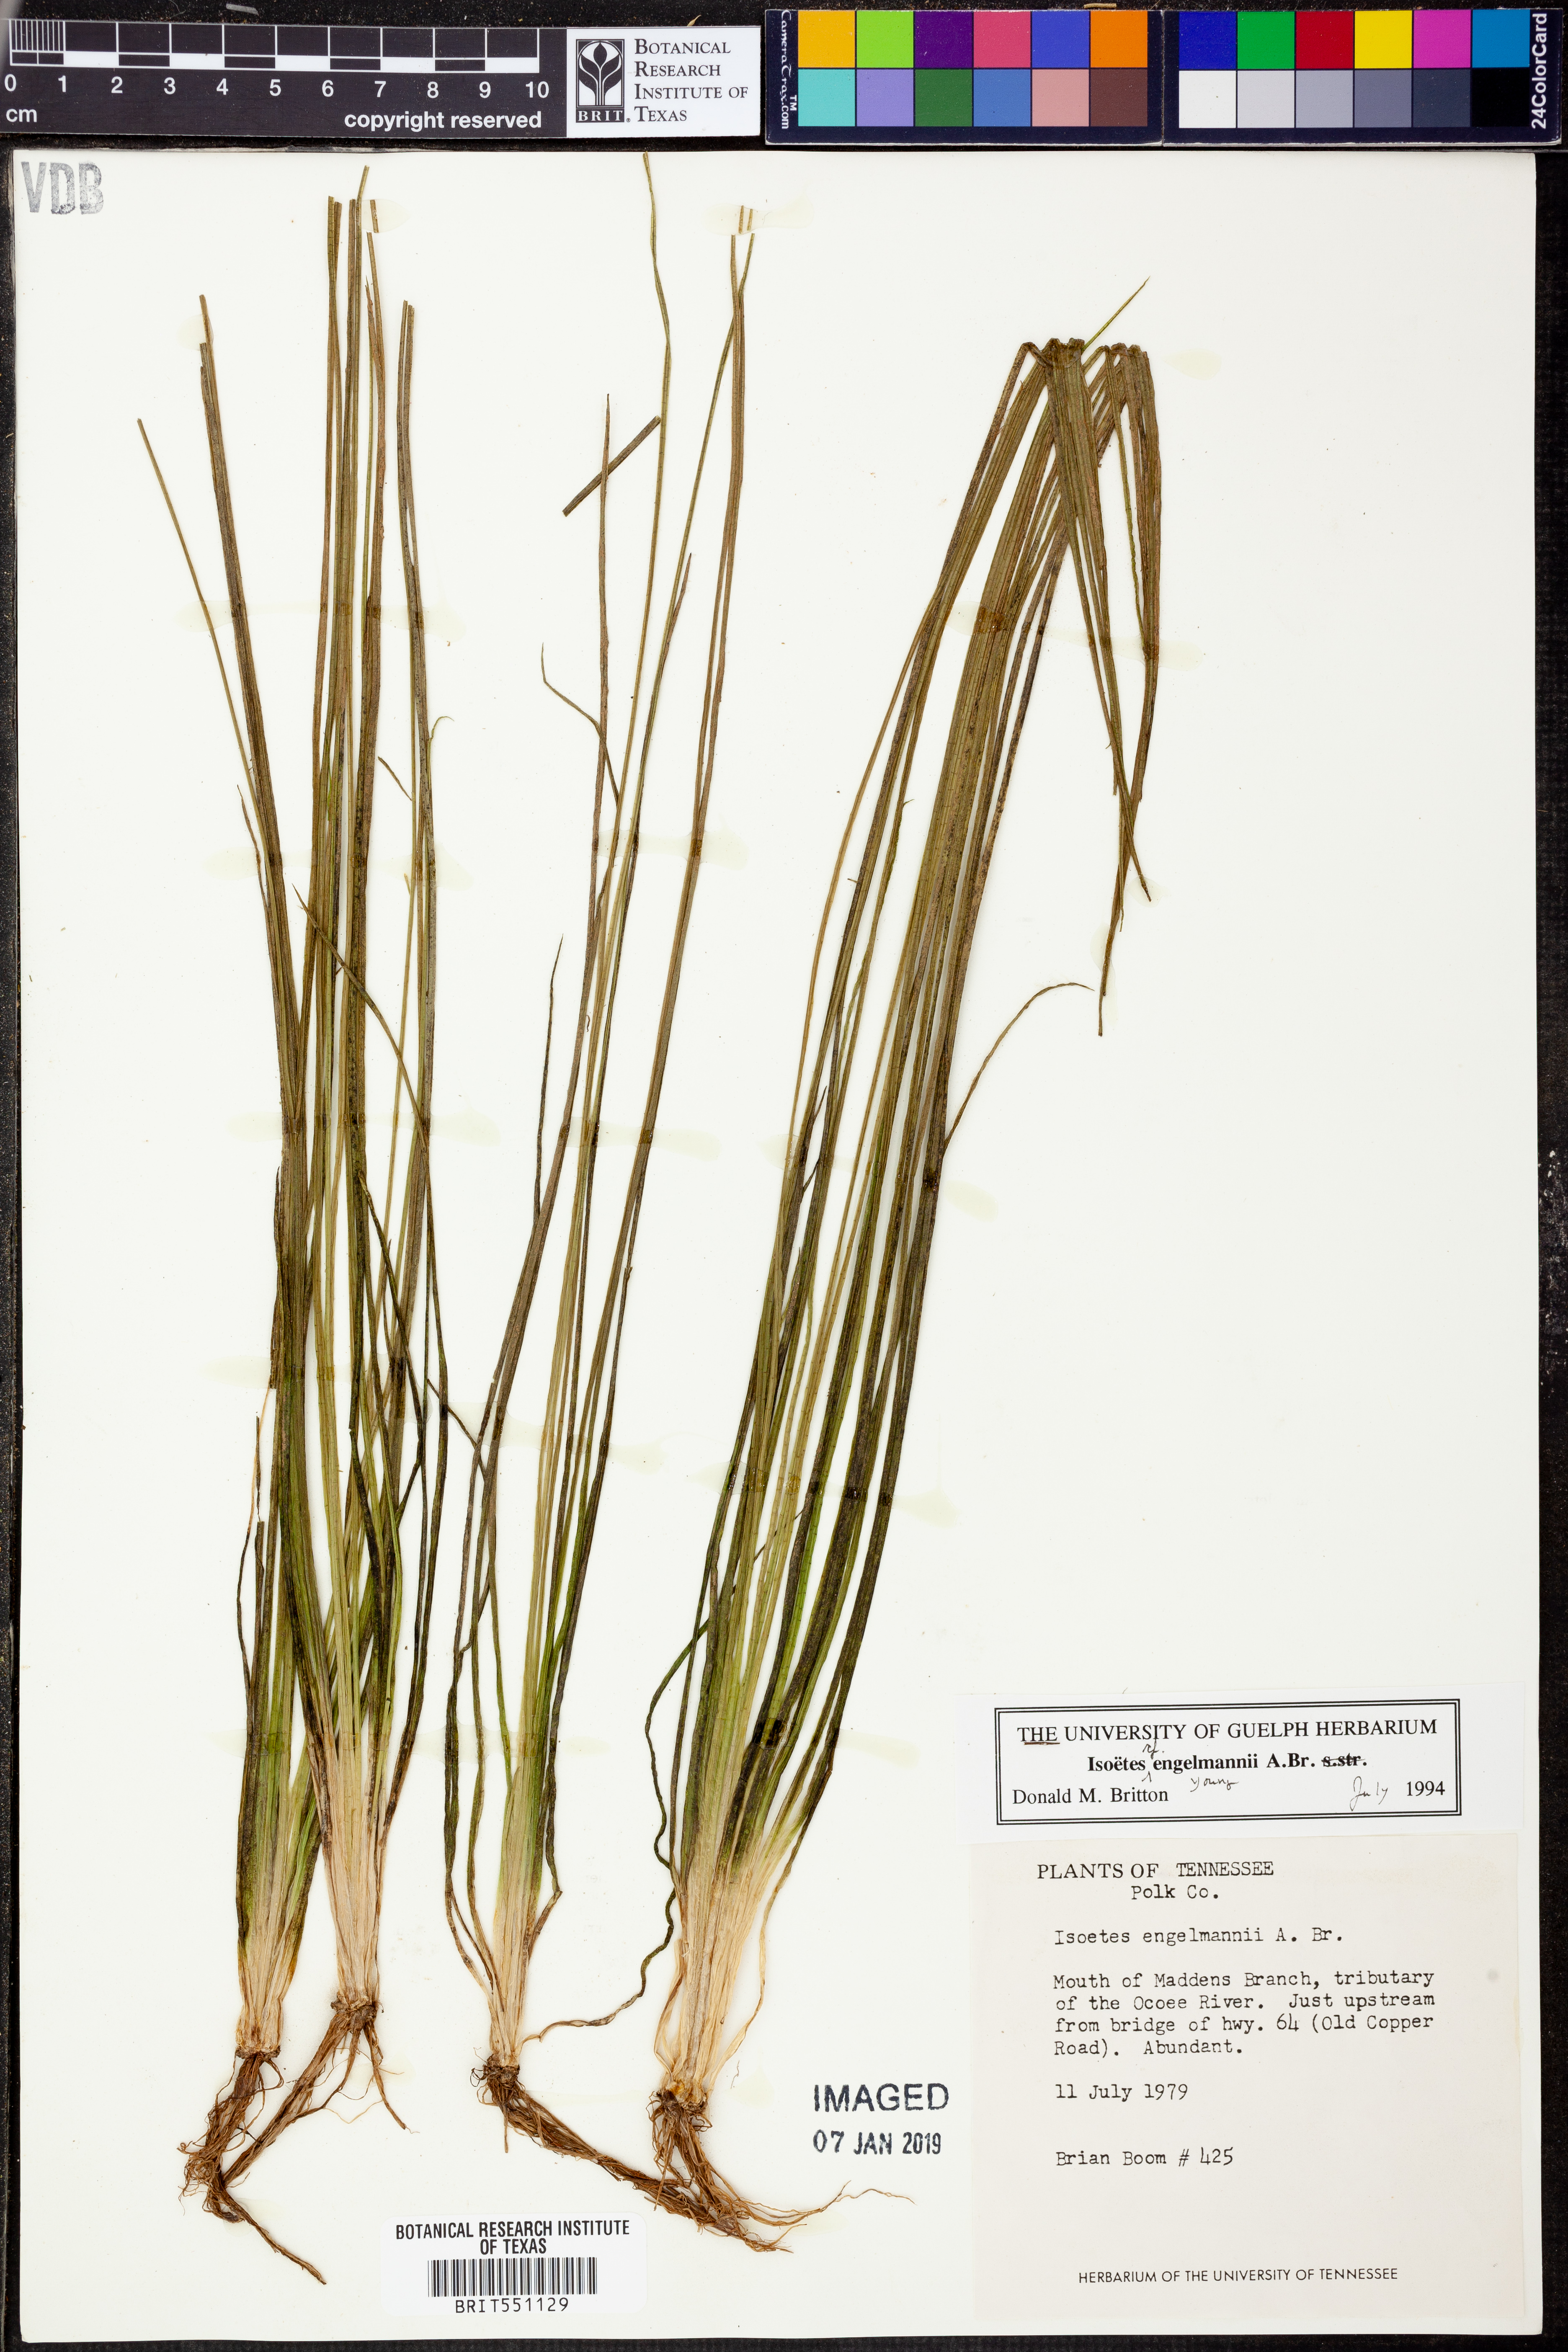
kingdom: Plantae
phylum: Tracheophyta
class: Lycopodiopsida
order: Isoetales
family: Isoetaceae
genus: Isoetes
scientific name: Isoetes engelmannii
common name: Engelmann's quillwort
